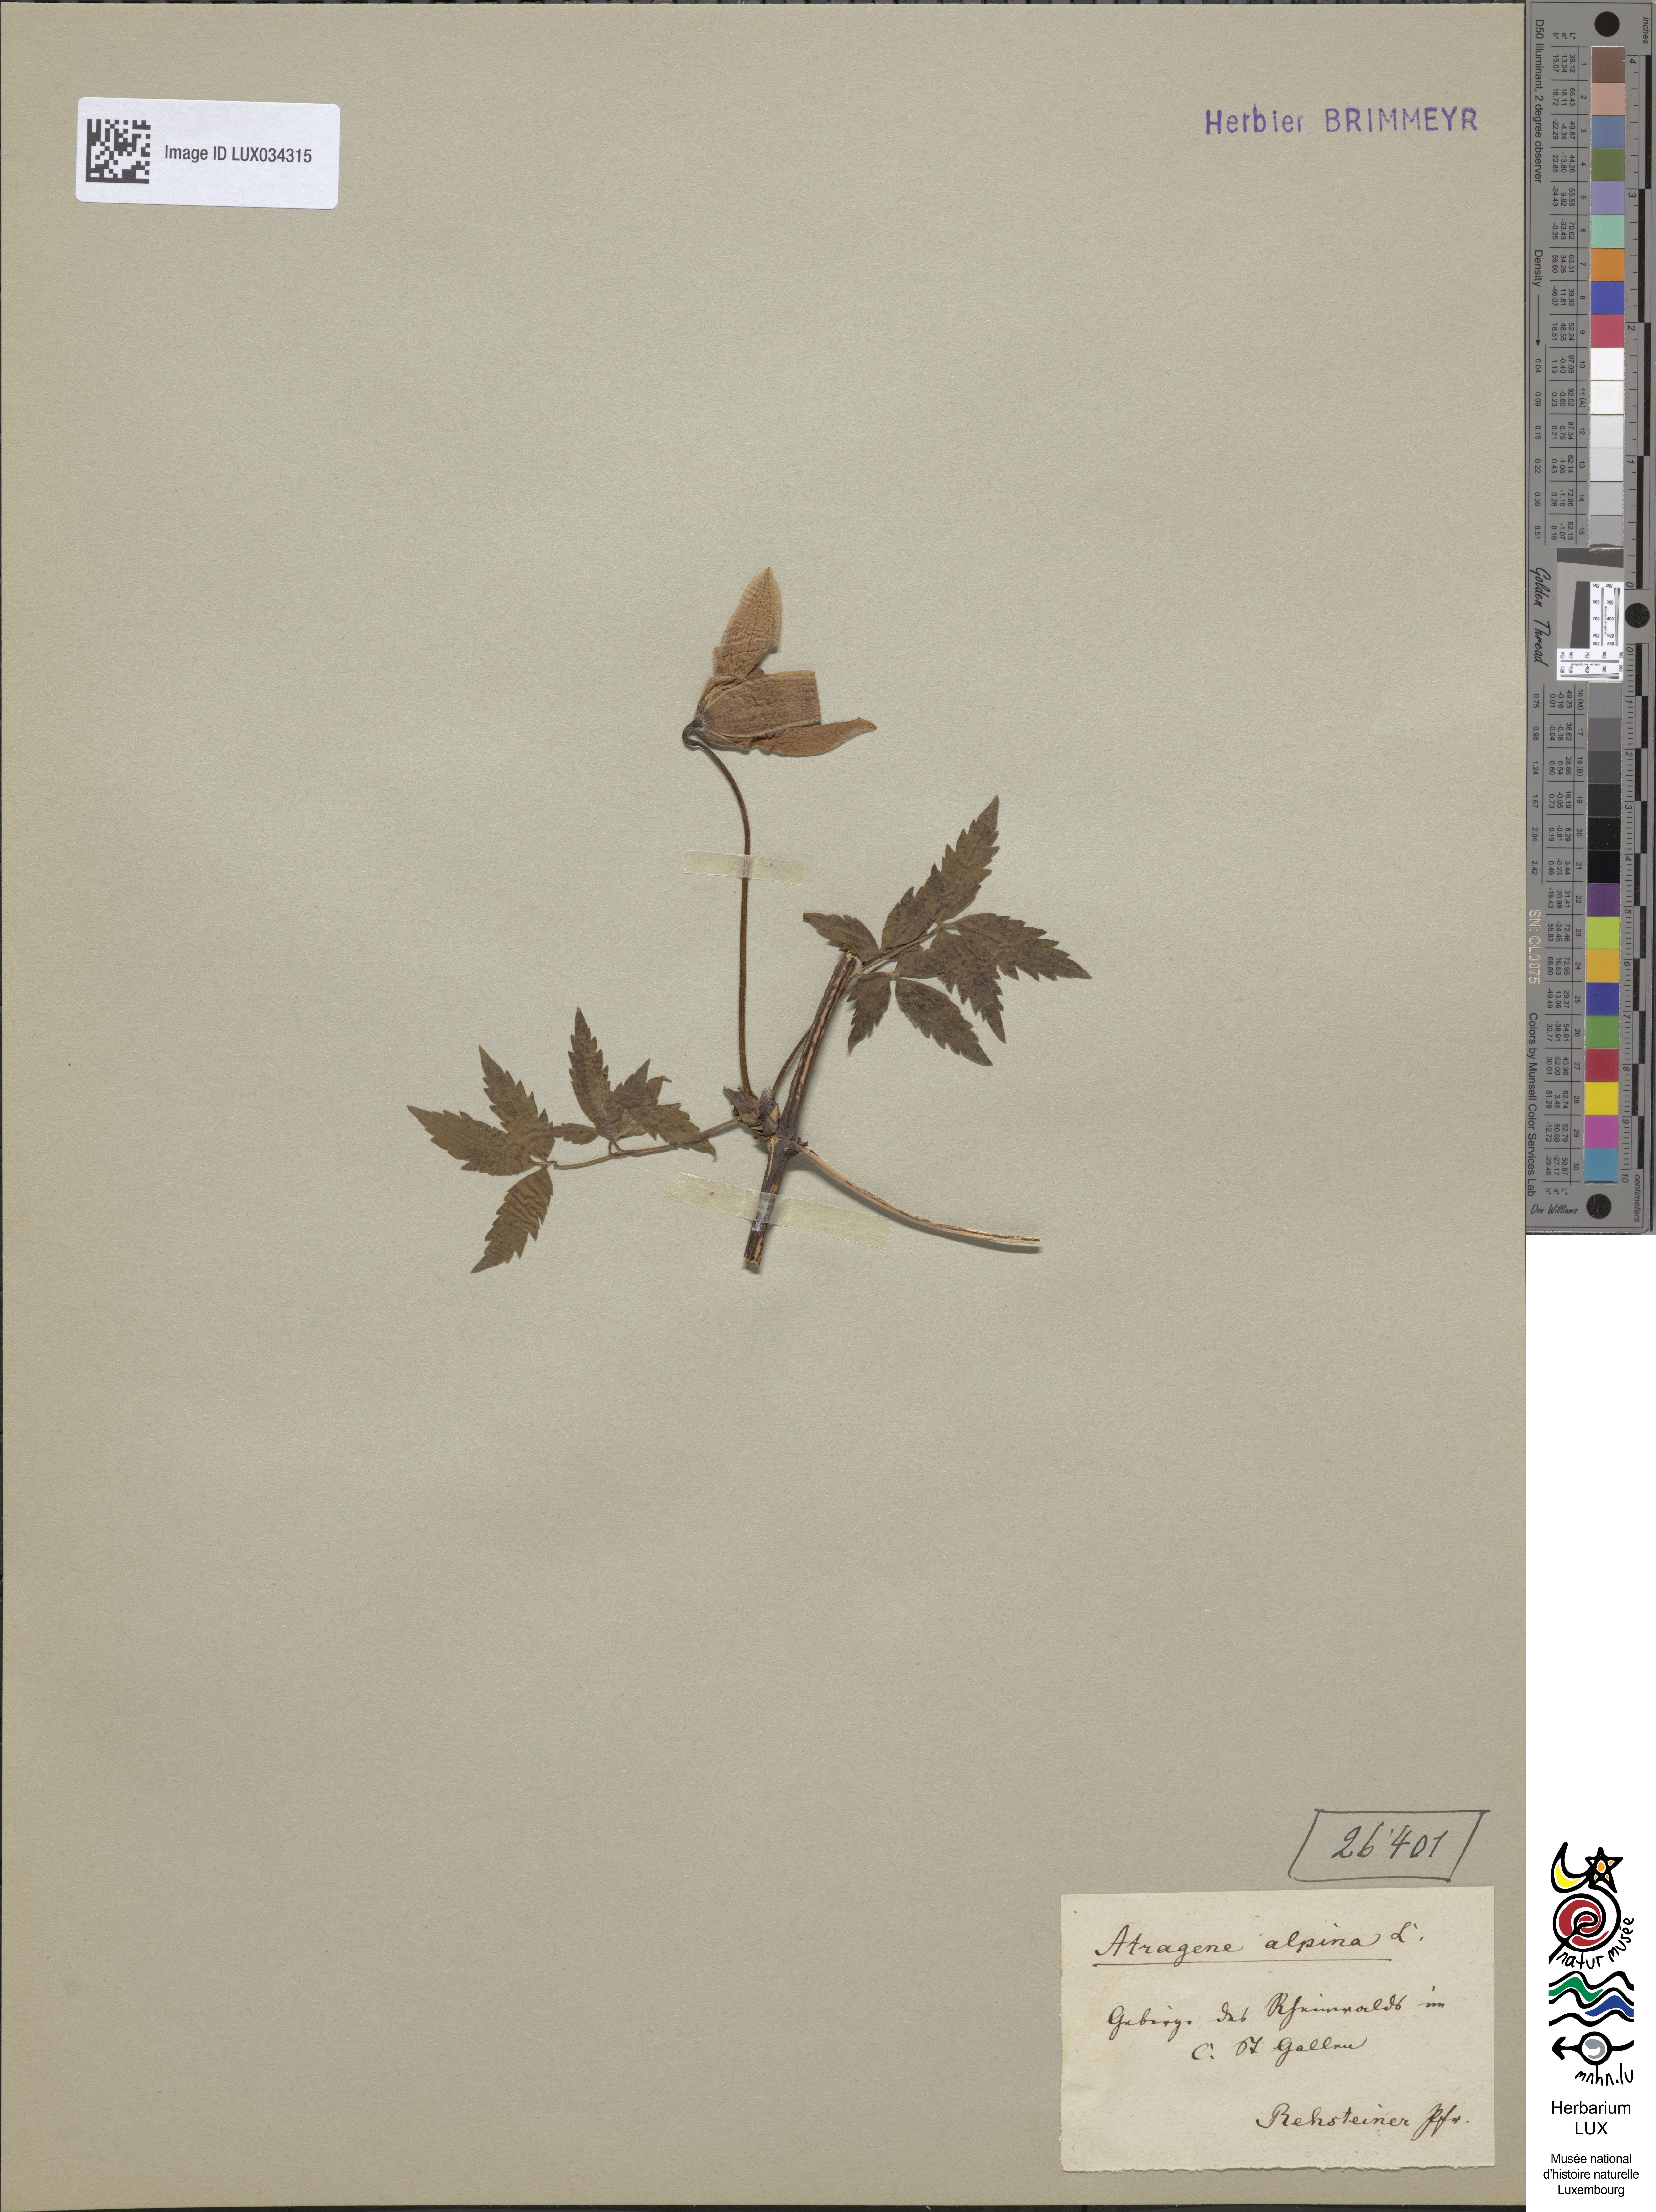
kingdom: Plantae
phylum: Tracheophyta
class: Magnoliopsida
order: Ranunculales
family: Ranunculaceae
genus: Clematis
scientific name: Clematis alpina
